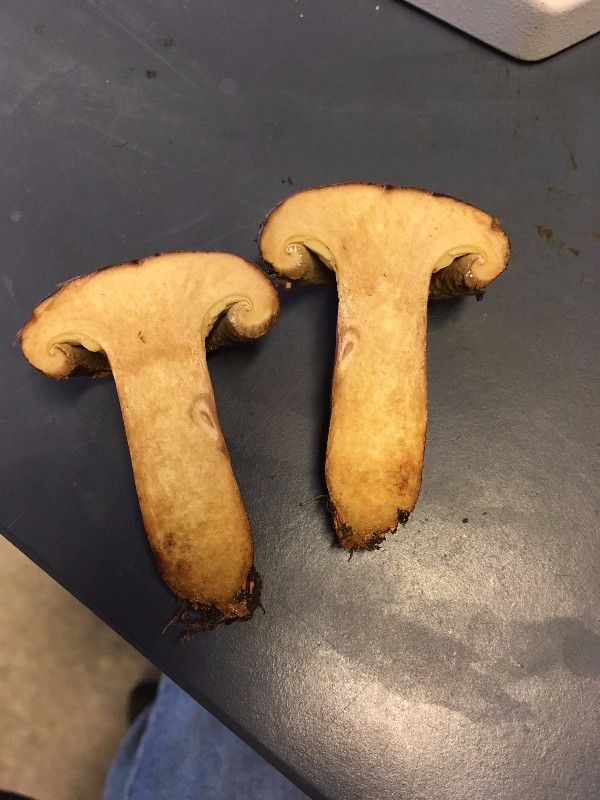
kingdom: Fungi
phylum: Basidiomycota
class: Agaricomycetes
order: Boletales
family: Paxillaceae
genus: Paxillus
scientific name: Paxillus ammoniavirescens
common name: olivensporet netbladhat
